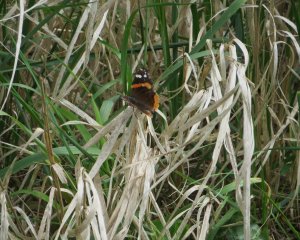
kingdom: Animalia
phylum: Arthropoda
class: Insecta
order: Lepidoptera
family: Nymphalidae
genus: Vanessa
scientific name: Vanessa atalanta
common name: Red Admiral
